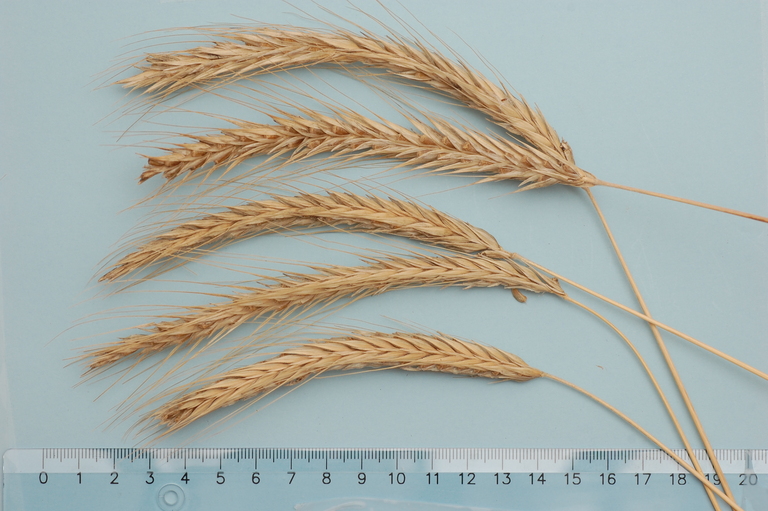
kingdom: Plantae
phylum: Tracheophyta
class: Liliopsida
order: Poales
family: Poaceae
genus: Secale
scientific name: Secale cereale
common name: Rye
